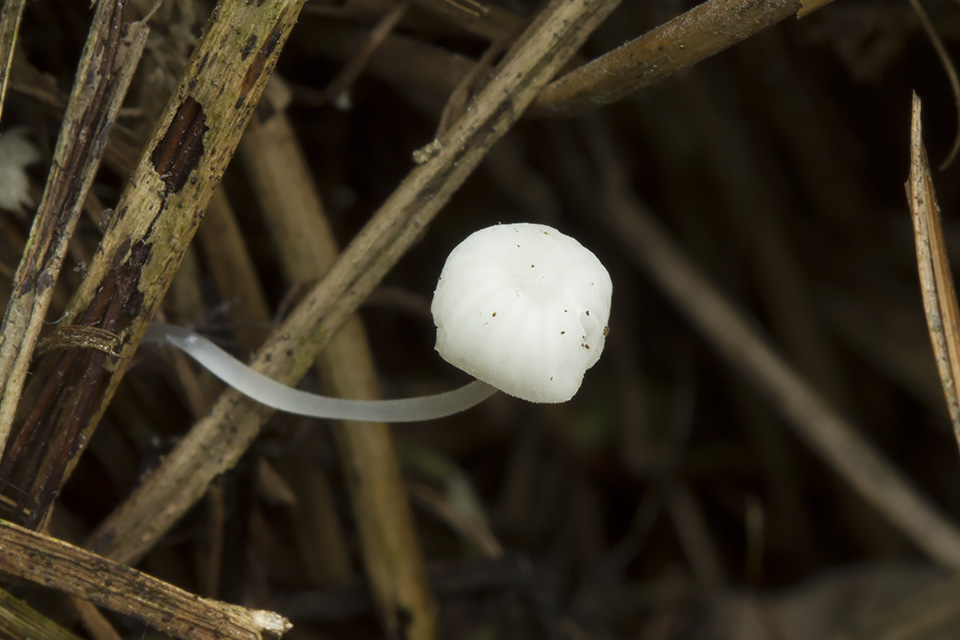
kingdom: Fungi
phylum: Basidiomycota
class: Agaricomycetes
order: Agaricales
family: Mycenaceae
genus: Hemimycena
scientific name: Hemimycena
